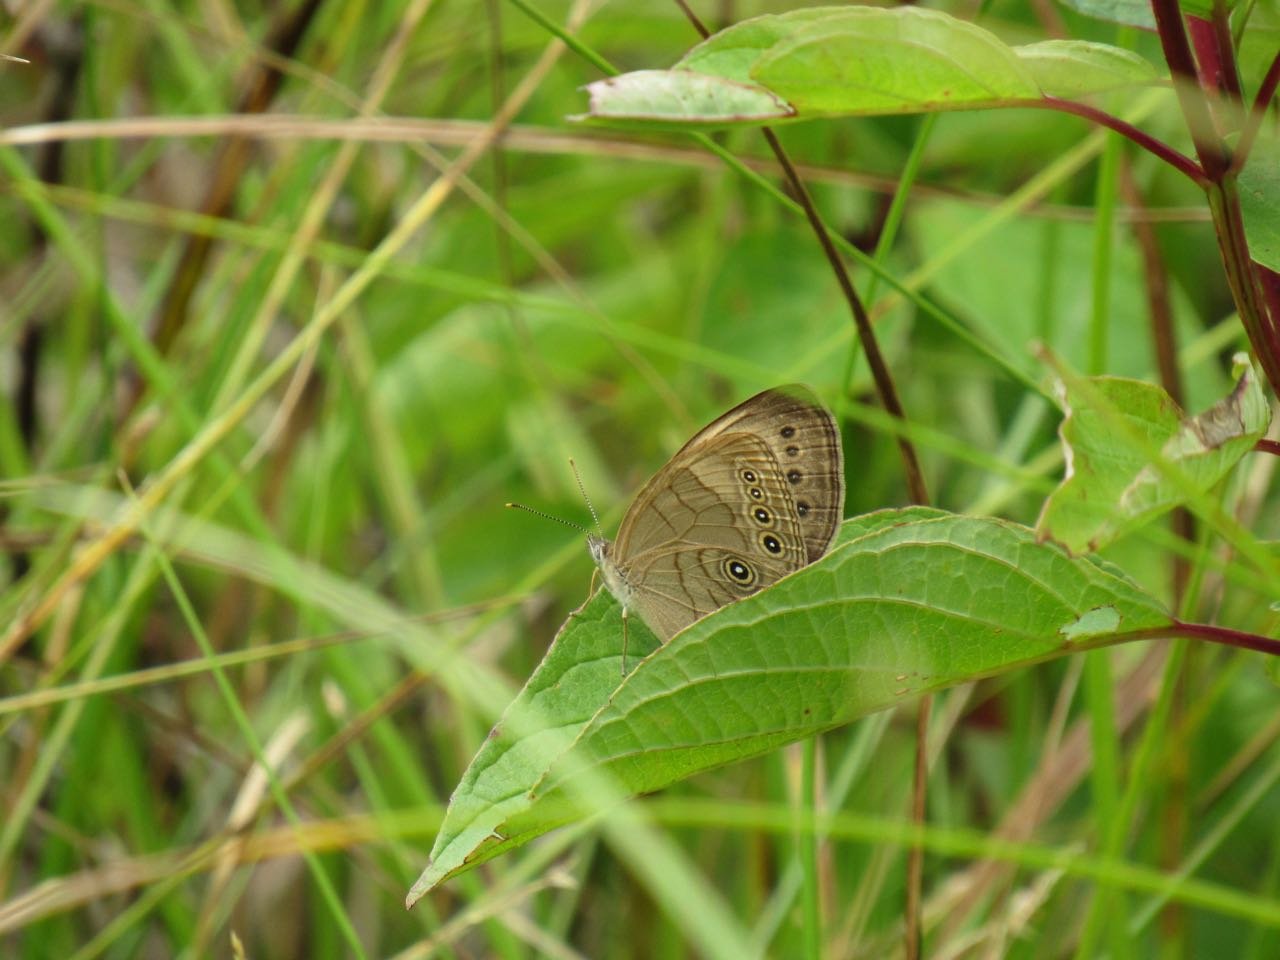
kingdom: Animalia
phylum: Arthropoda
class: Insecta
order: Lepidoptera
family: Nymphalidae
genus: Lethe
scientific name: Lethe eurydice
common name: Appalachian Eyed Brown
